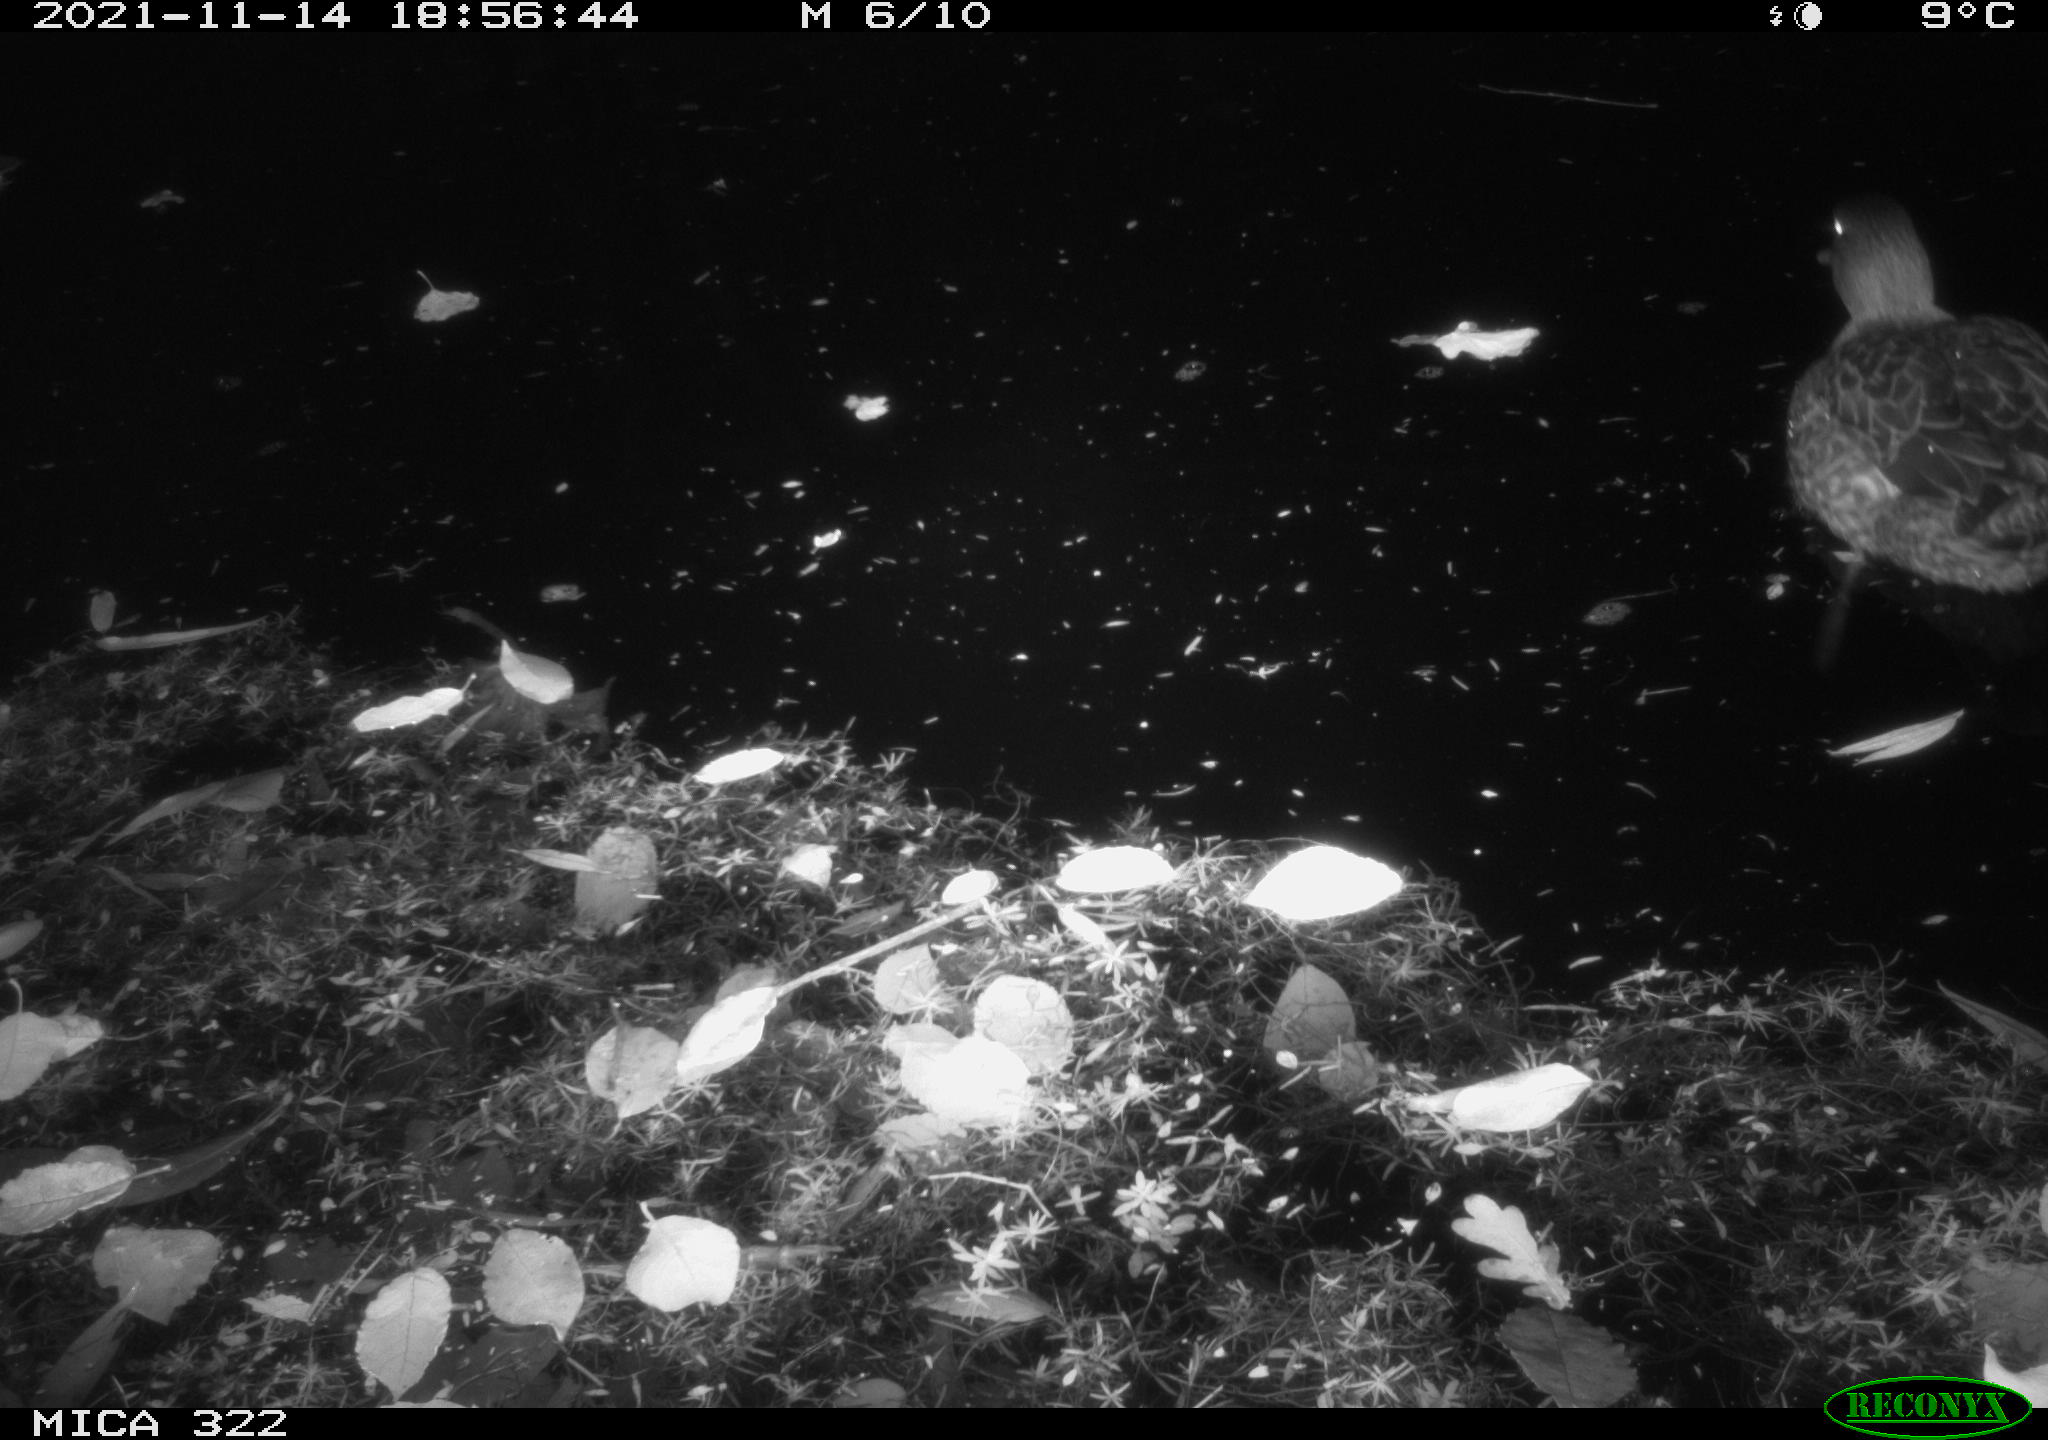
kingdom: Animalia
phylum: Chordata
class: Aves
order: Anseriformes
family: Anatidae
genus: Anas
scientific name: Anas platyrhynchos
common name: Mallard
